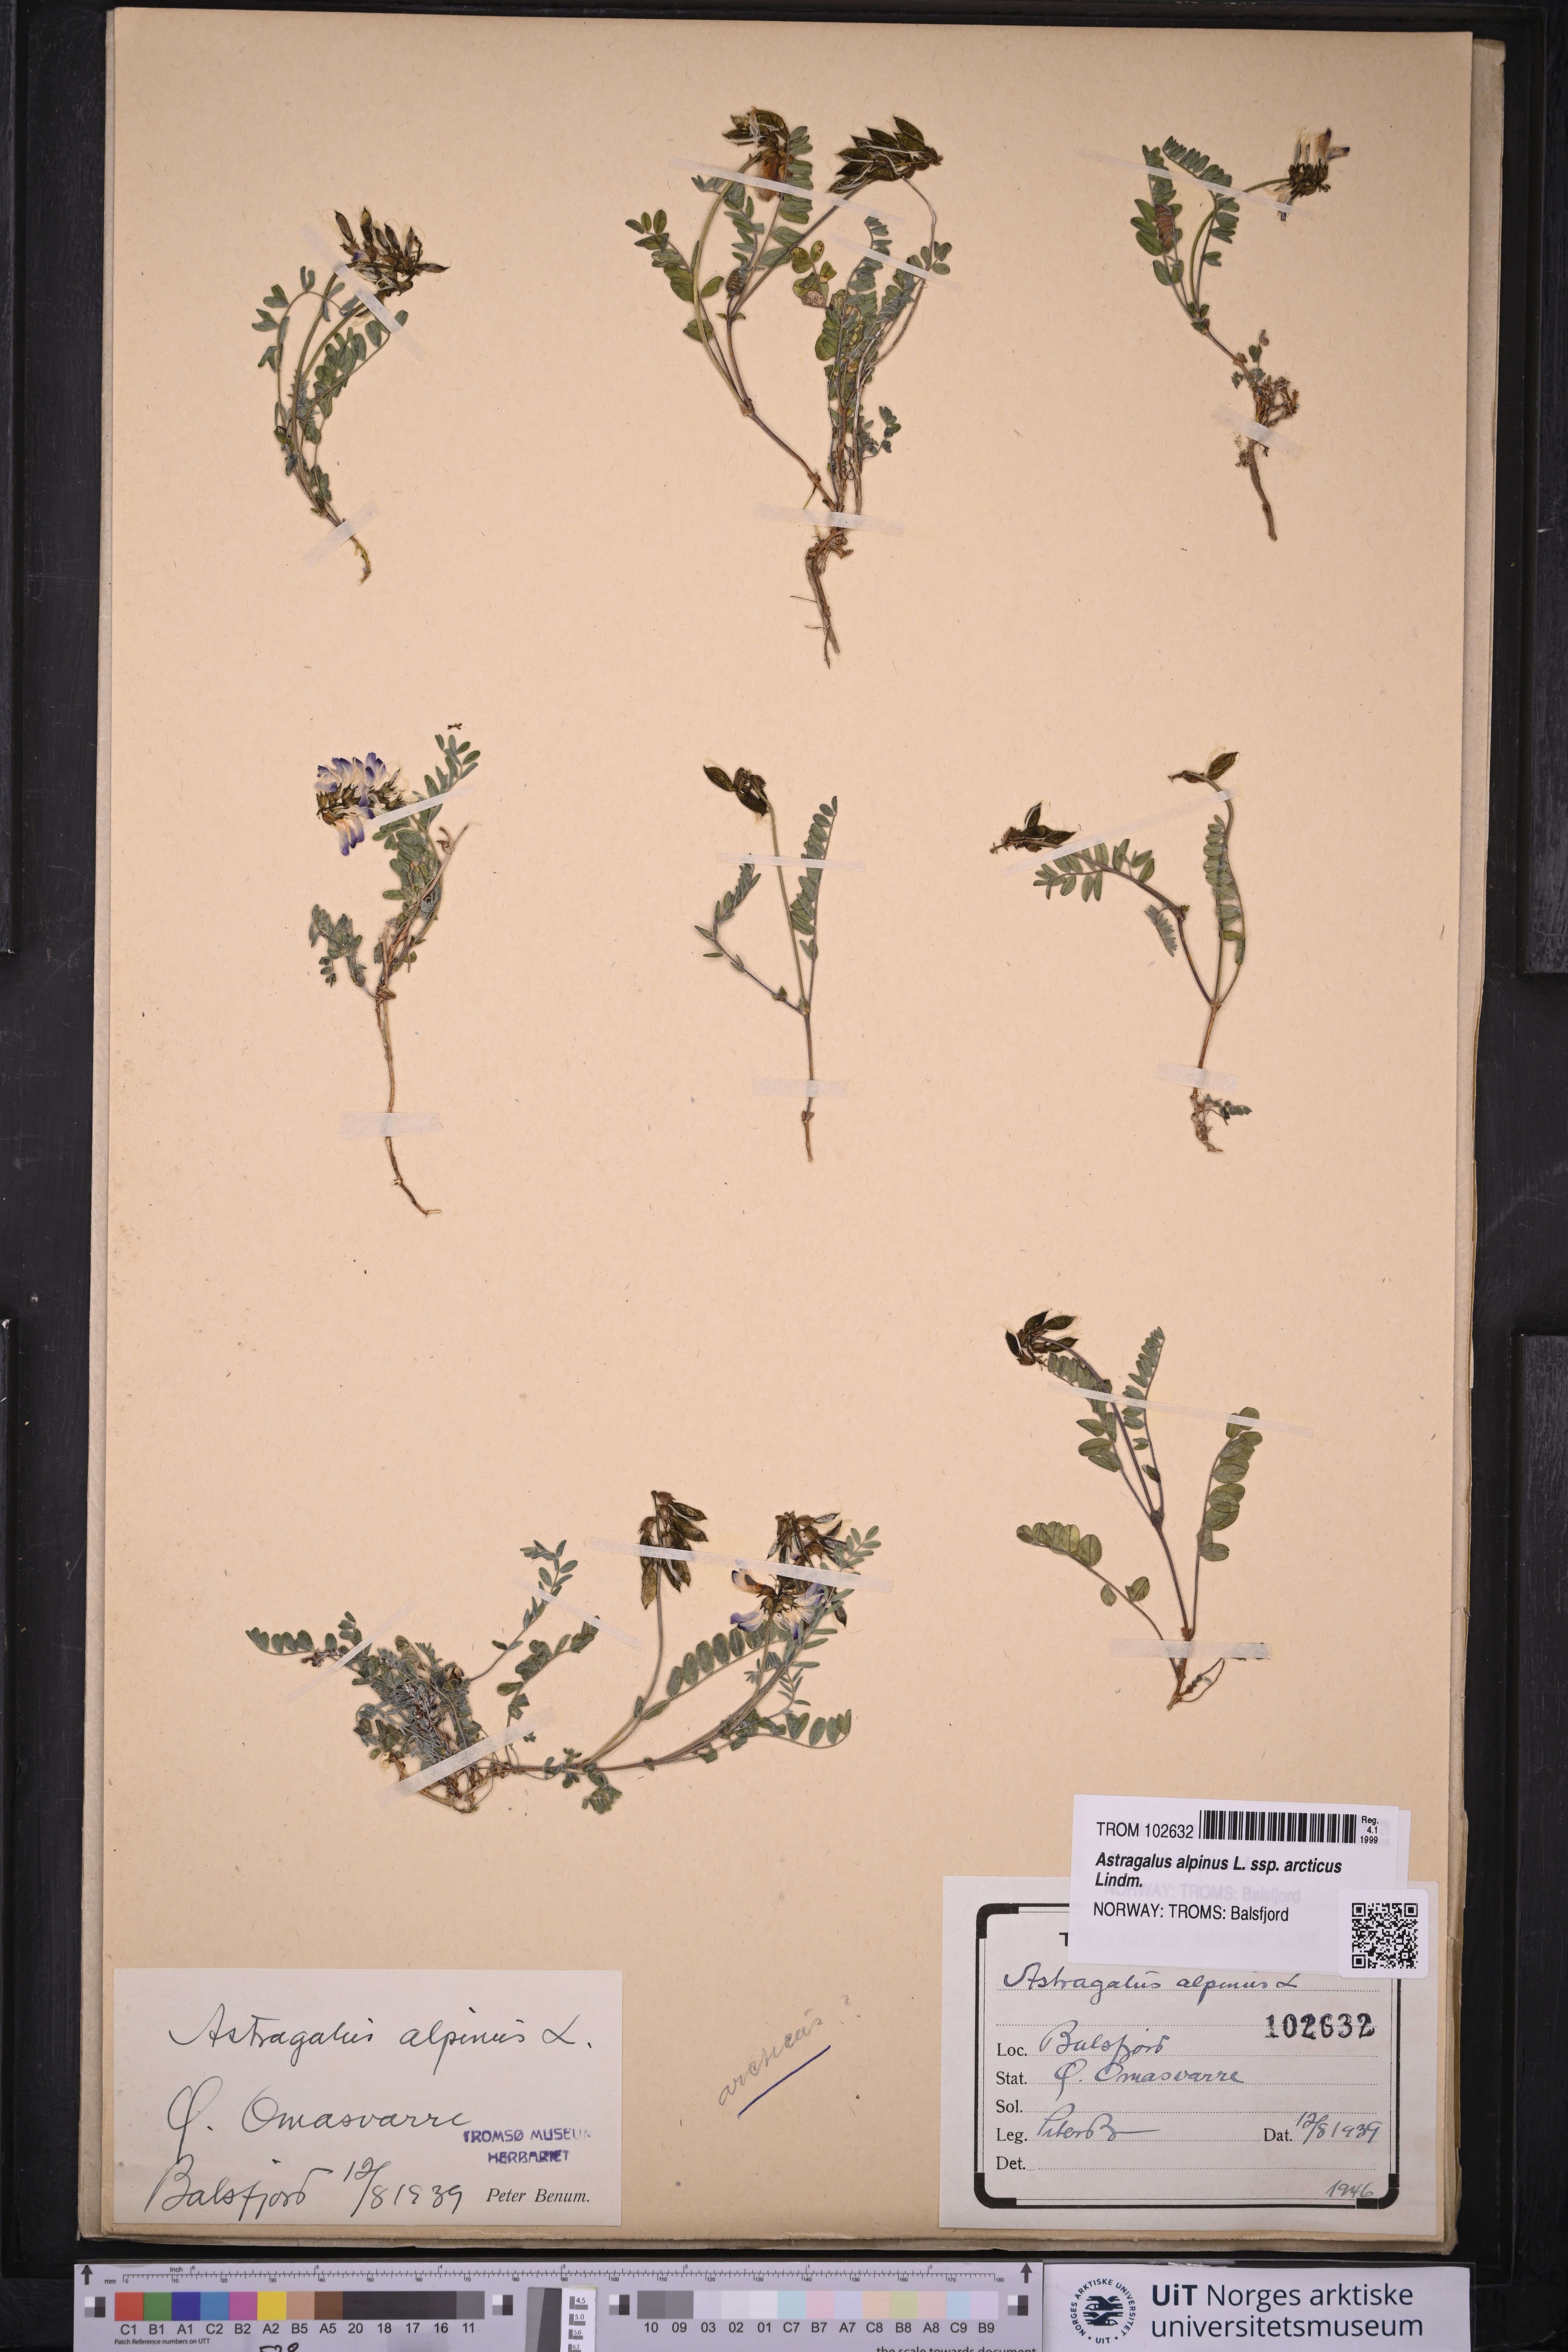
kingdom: Plantae
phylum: Tracheophyta
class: Magnoliopsida
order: Fabales
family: Fabaceae
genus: Astragalus
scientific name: Astragalus norvegicus
